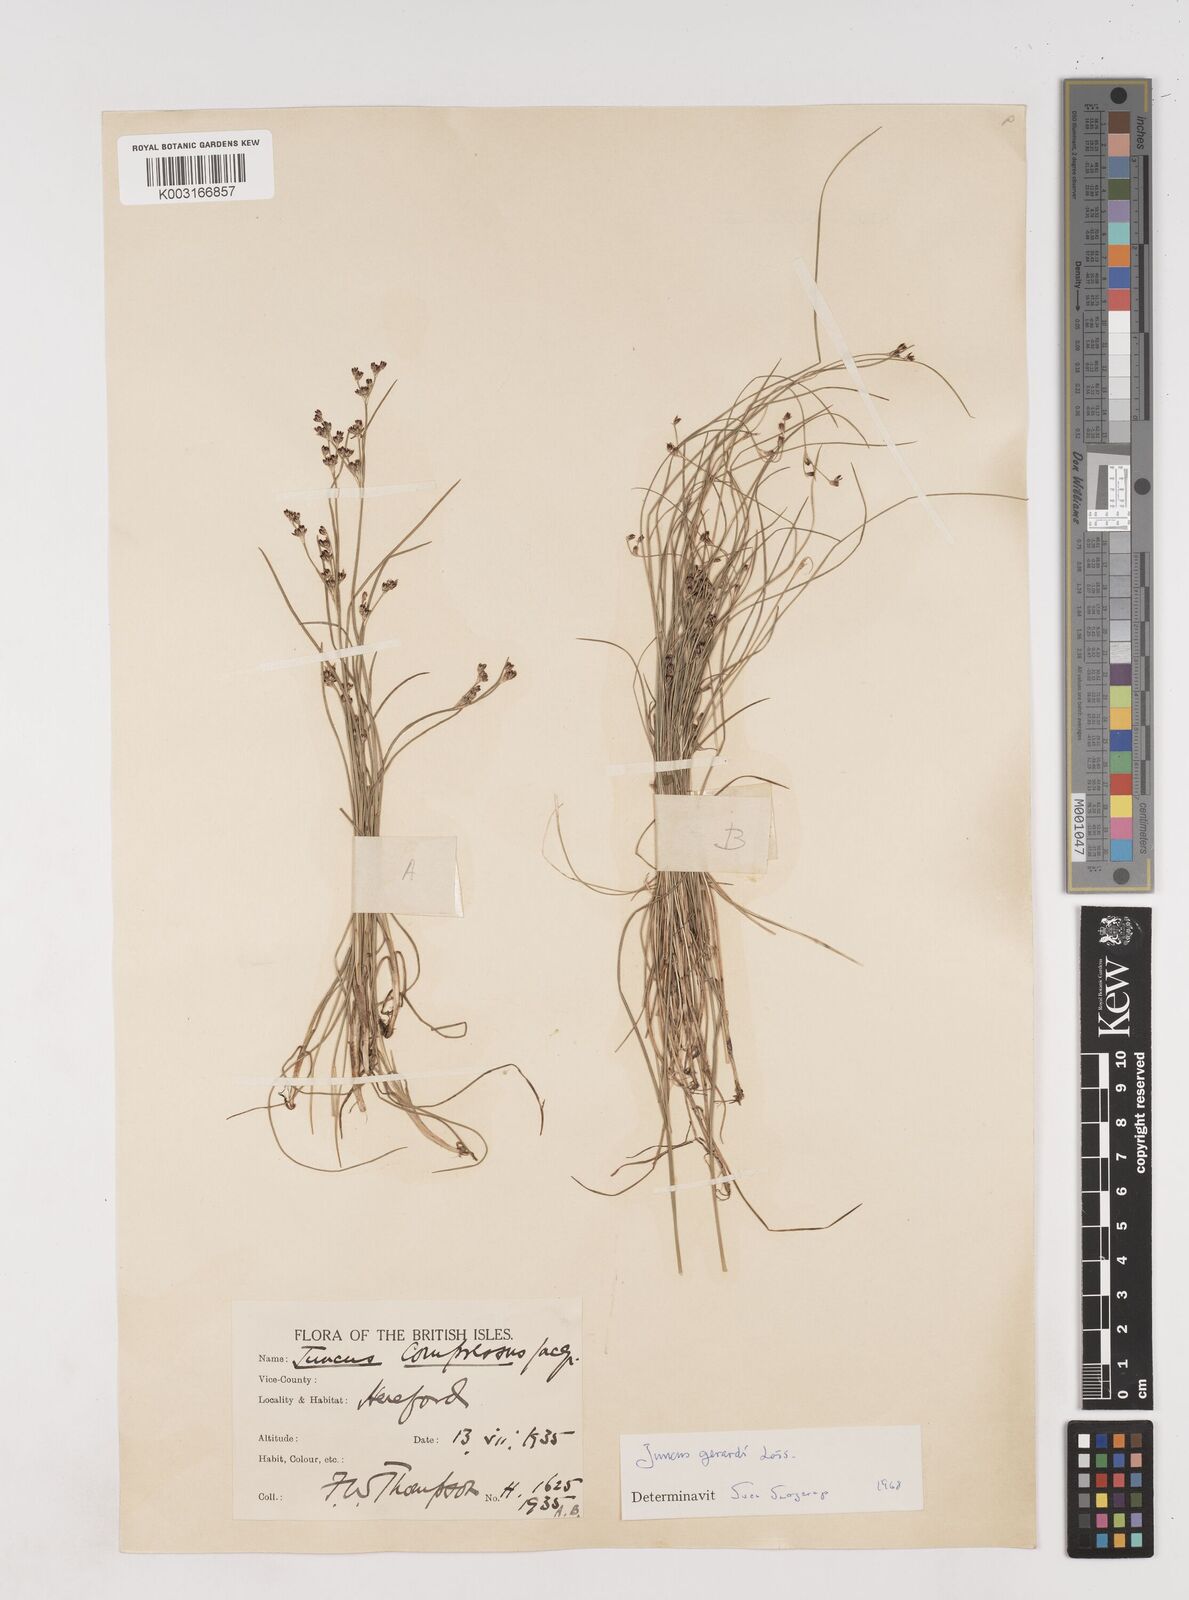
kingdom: Plantae
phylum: Tracheophyta
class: Liliopsida
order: Poales
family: Juncaceae
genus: Juncus
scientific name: Juncus gerardi
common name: Saltmarsh rush
